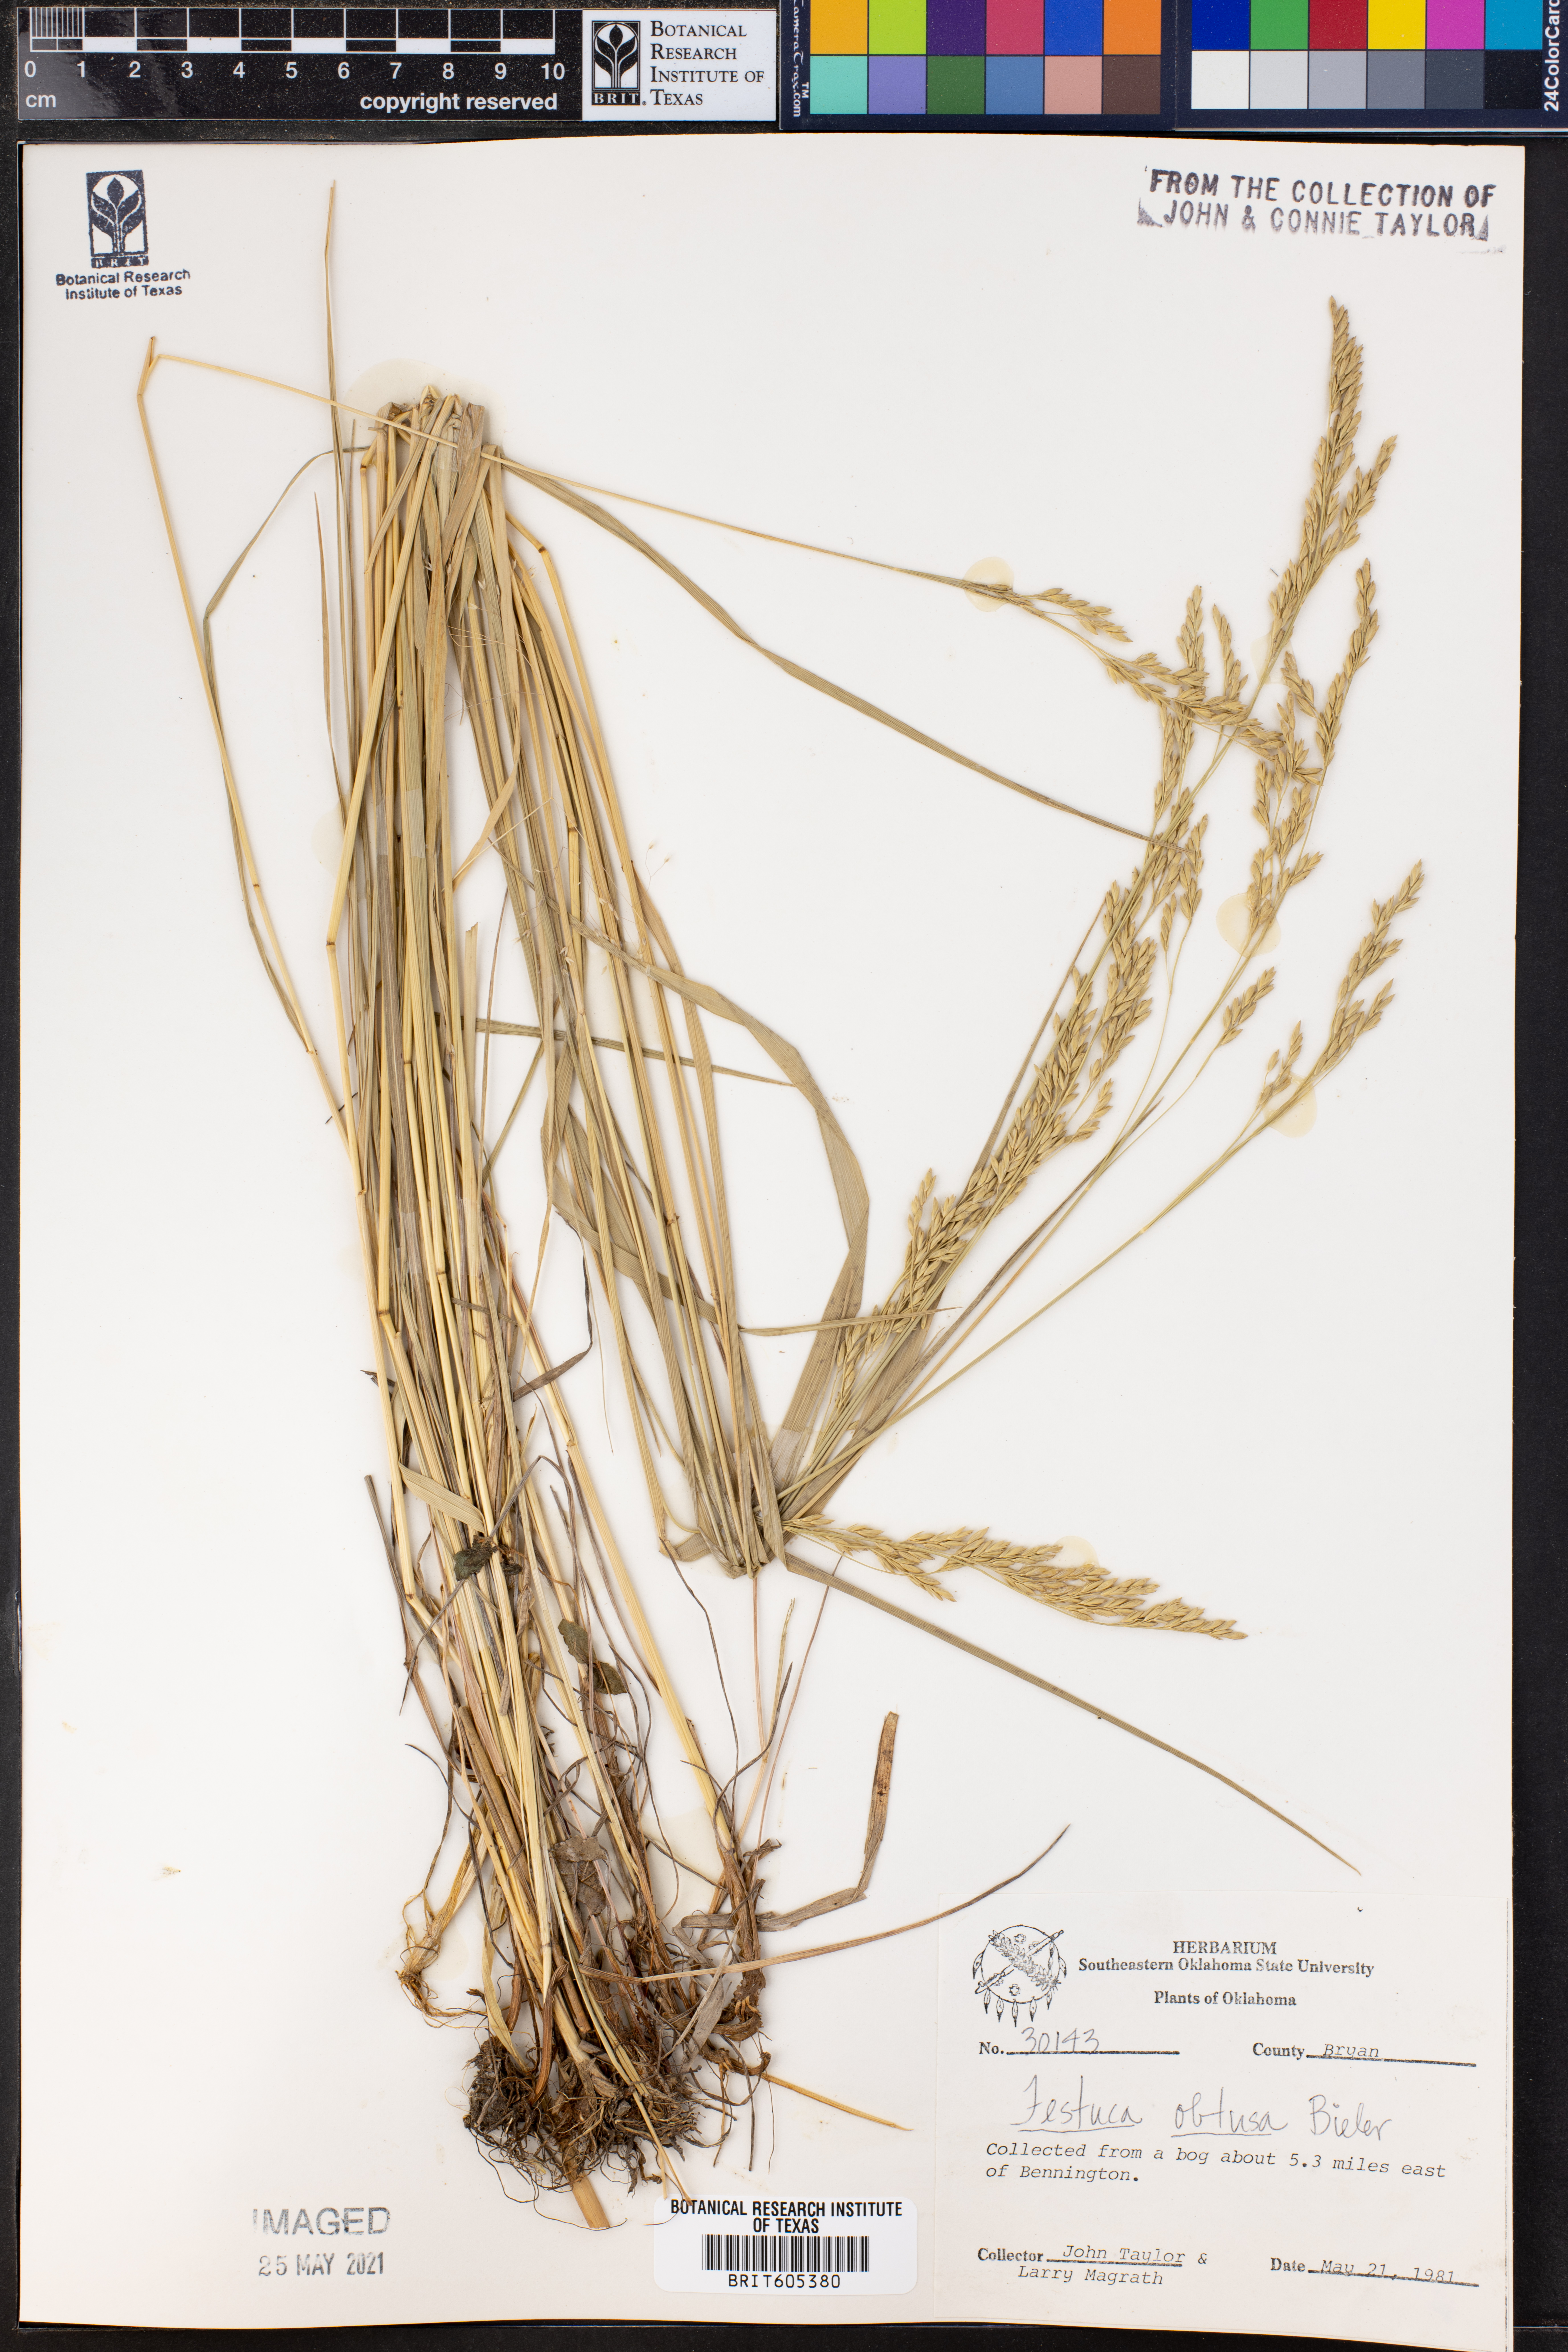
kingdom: Plantae
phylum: Tracheophyta
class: Liliopsida
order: Poales
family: Poaceae
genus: Festuca
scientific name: Festuca subverticillata
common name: Nodding fescue
